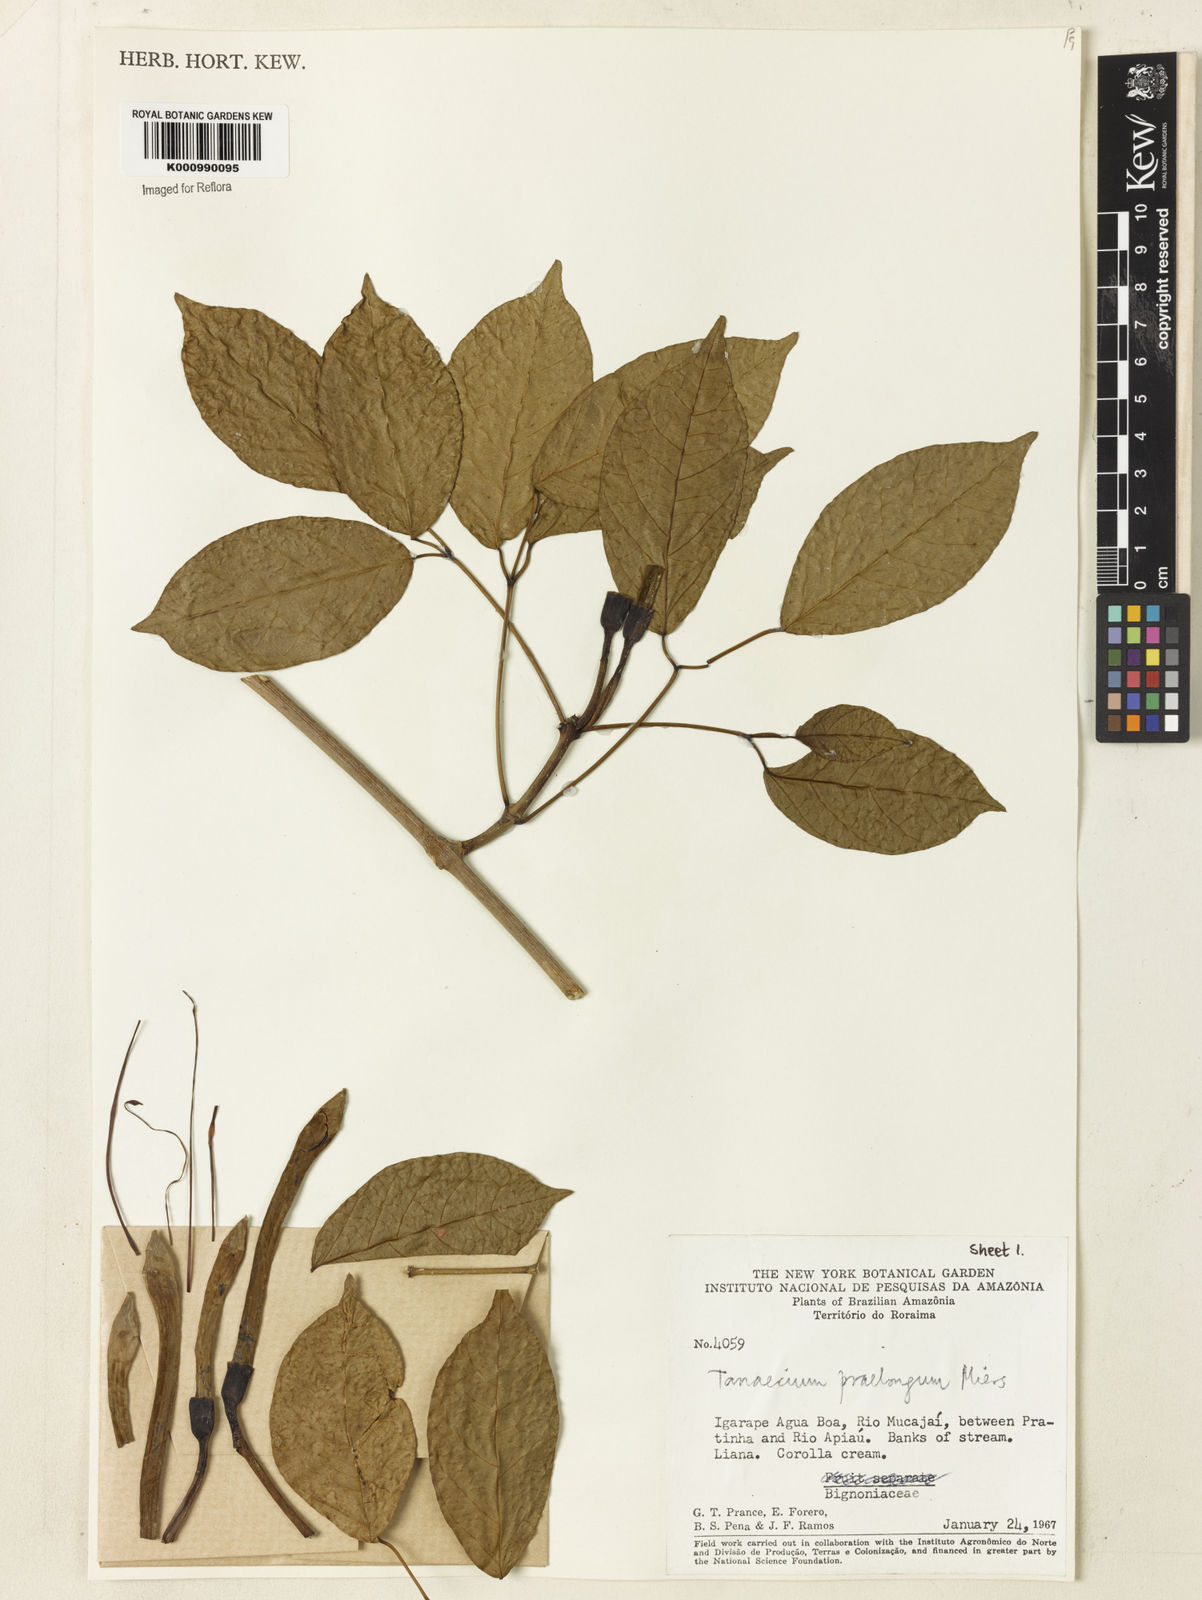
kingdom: Plantae
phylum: Tracheophyta
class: Magnoliopsida
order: Lamiales
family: Bignoniaceae
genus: Tanaecium
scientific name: Tanaecium jaroba
